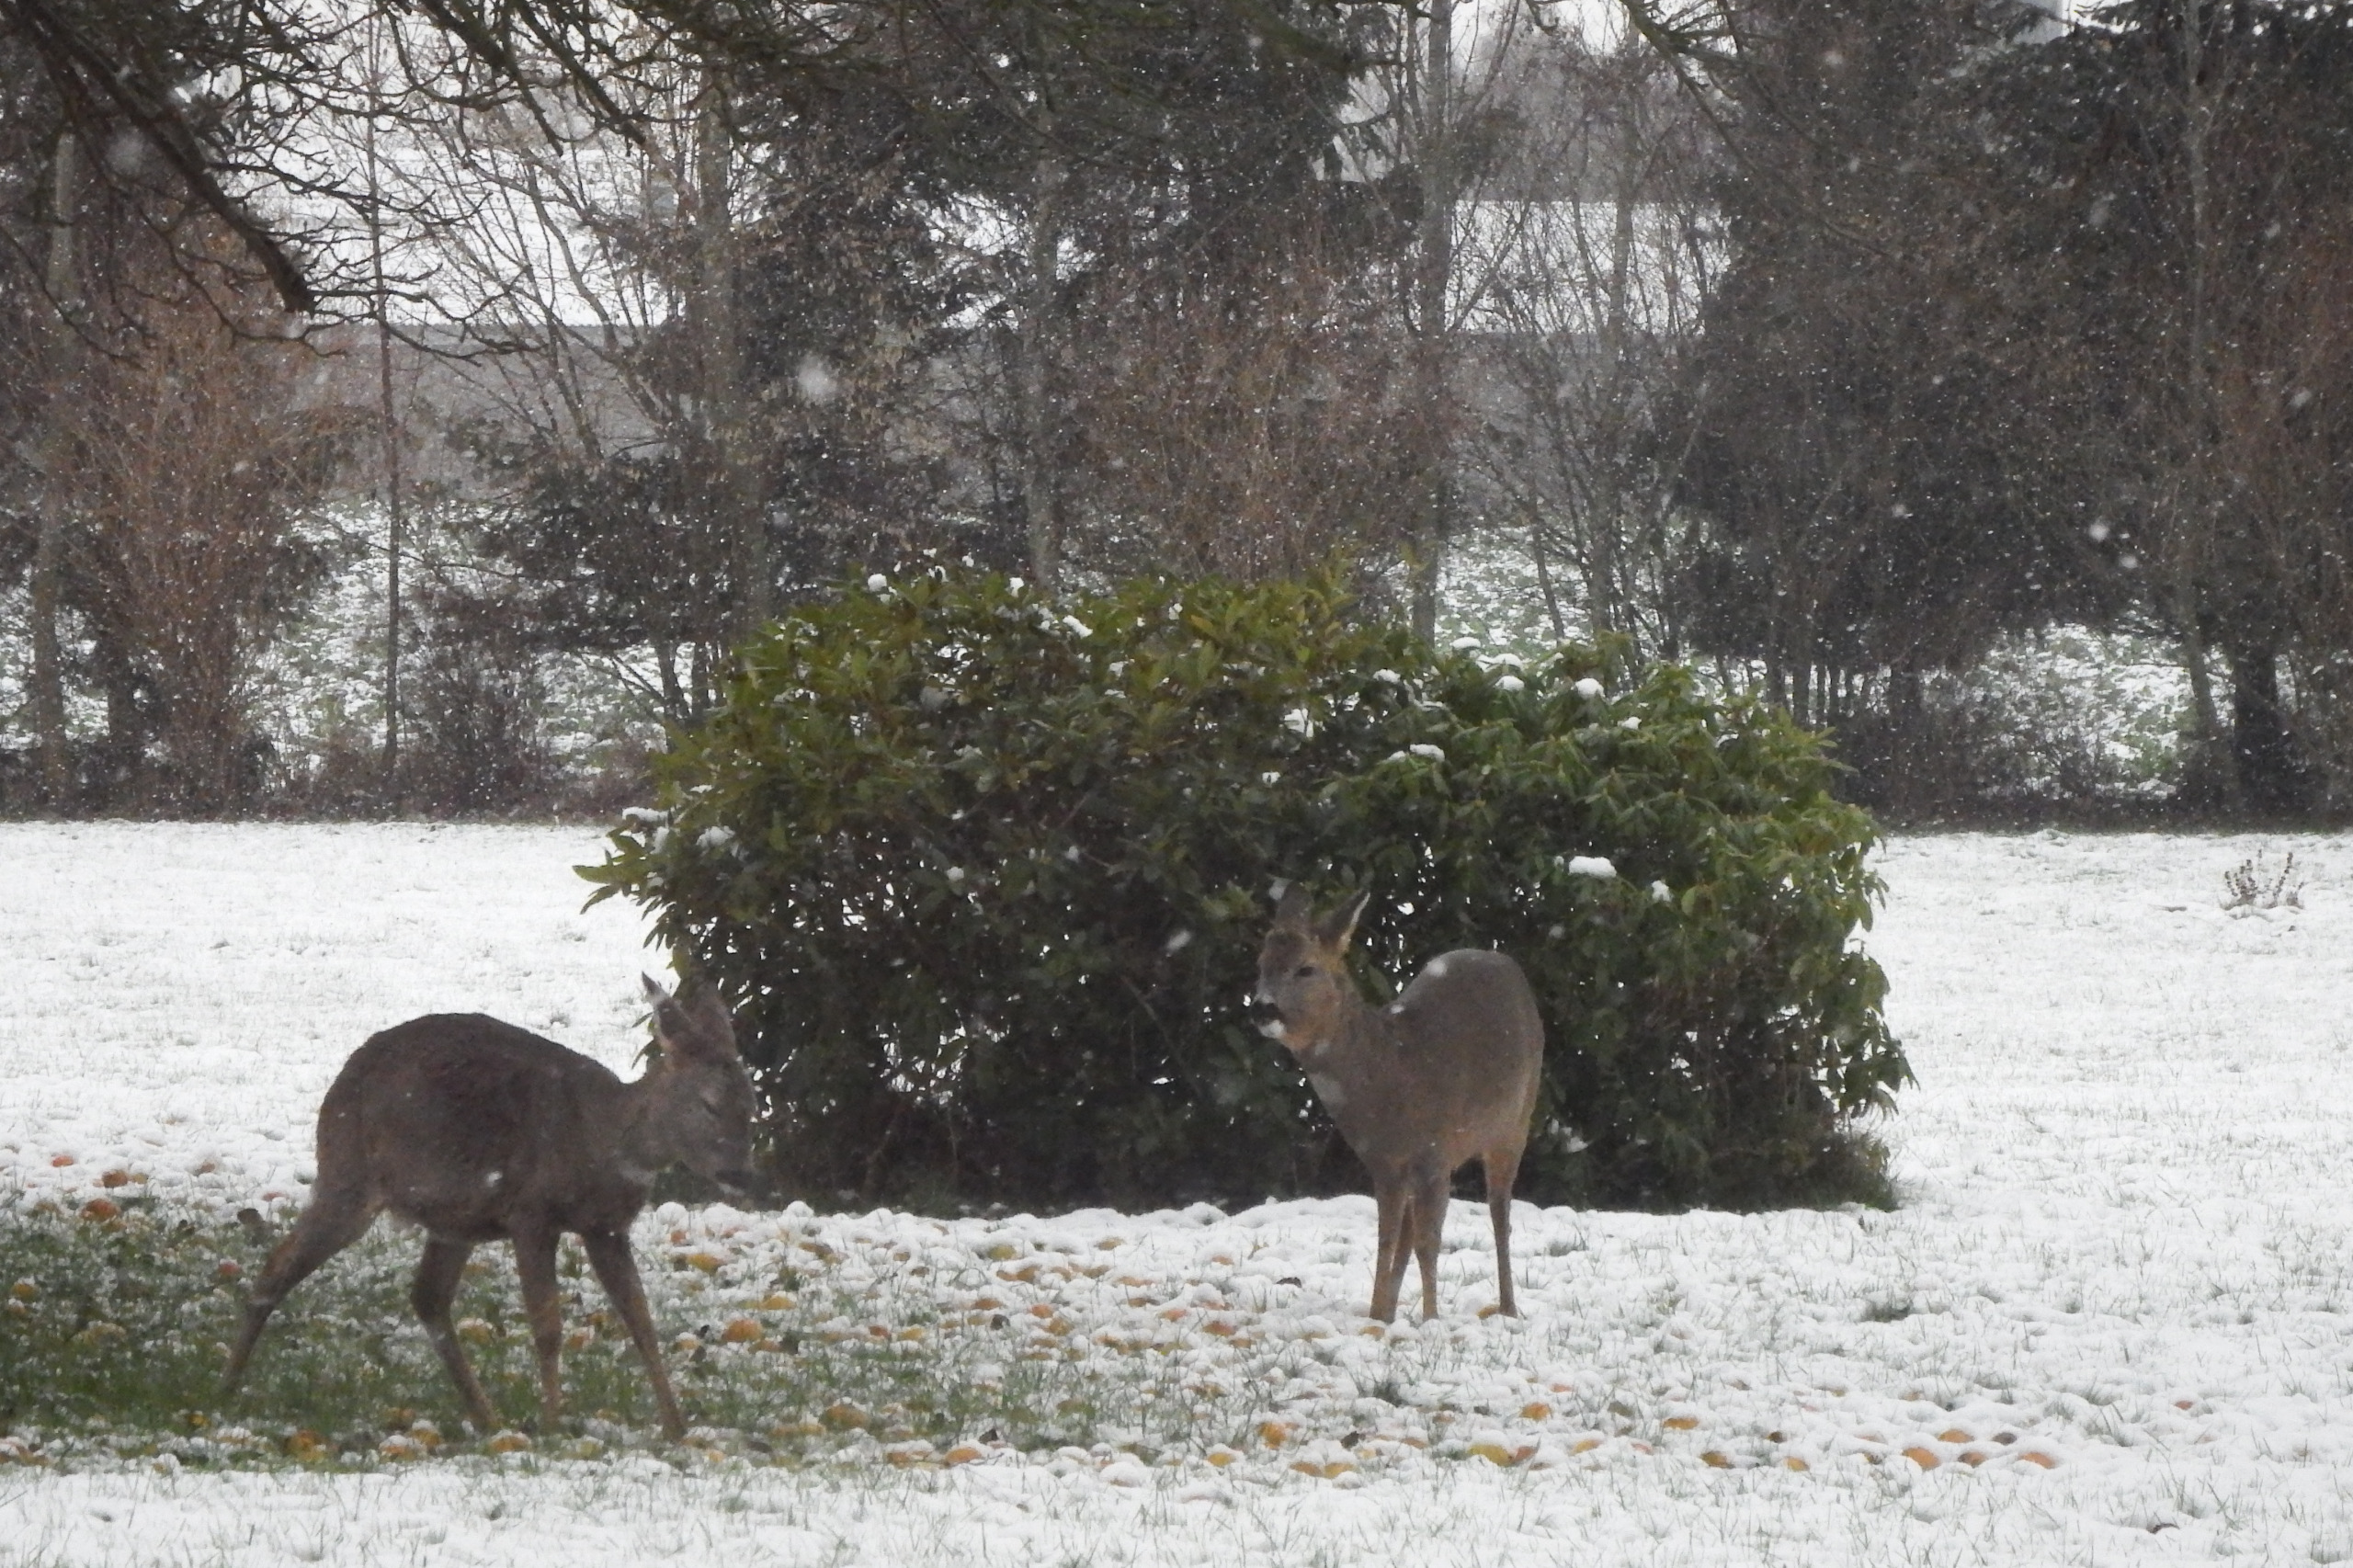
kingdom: Animalia
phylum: Chordata
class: Mammalia
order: Artiodactyla
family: Cervidae
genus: Capreolus
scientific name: Capreolus capreolus
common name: Rådyr
